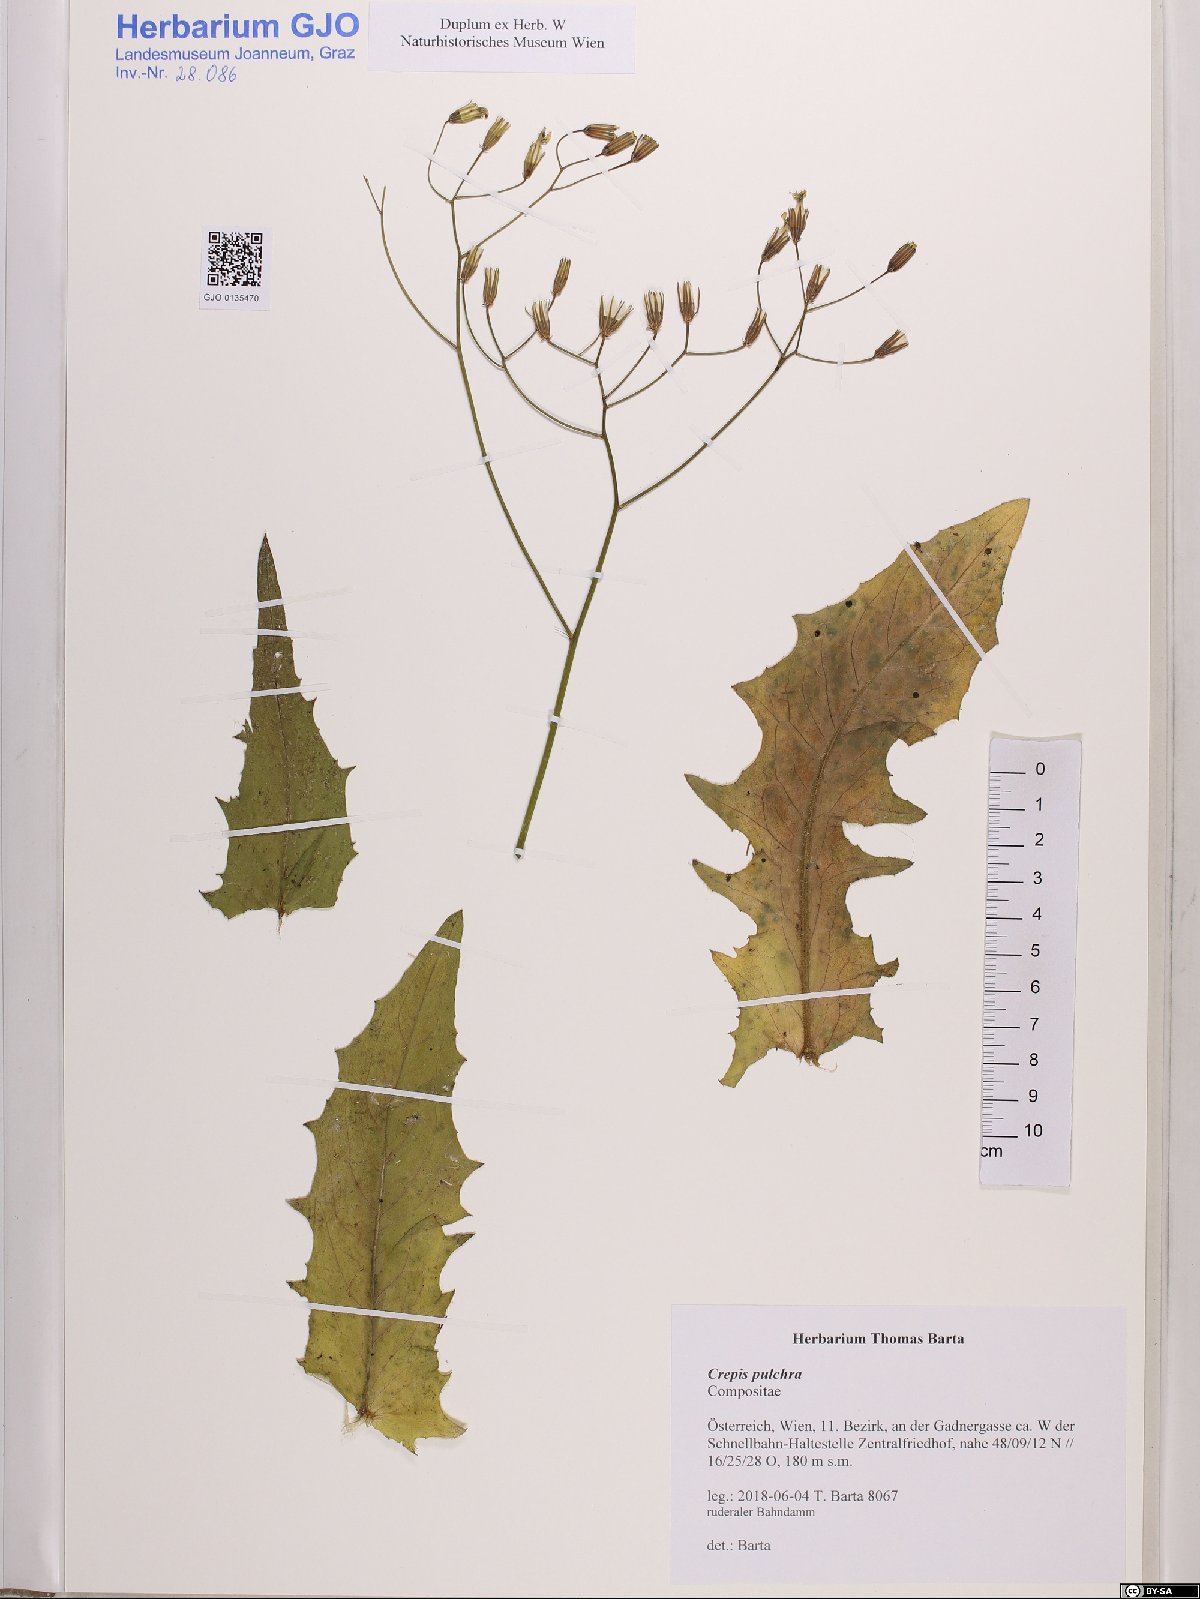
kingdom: Plantae
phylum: Tracheophyta
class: Magnoliopsida
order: Asterales
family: Asteraceae
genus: Crepis
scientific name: Crepis pulchra
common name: Hawk's-beard
